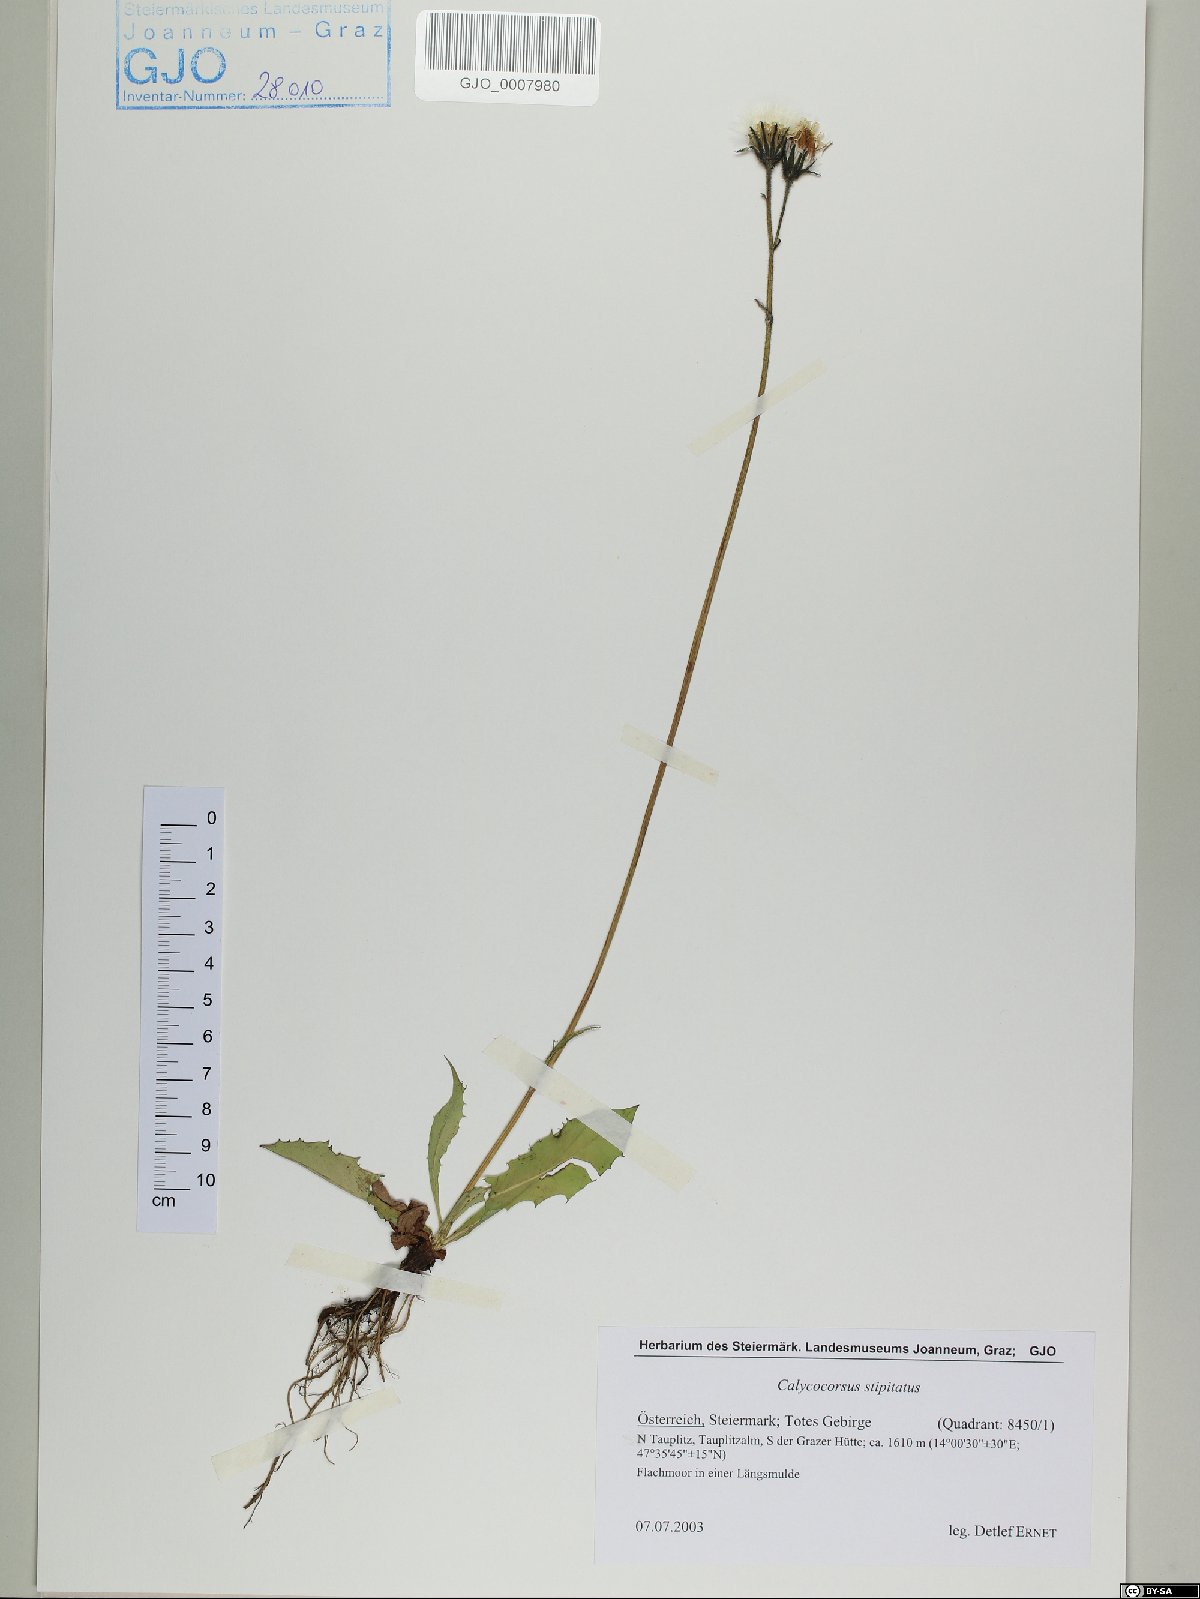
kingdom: Plantae
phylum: Tracheophyta
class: Magnoliopsida
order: Asterales
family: Asteraceae
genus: Willemetia
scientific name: Willemetia stipitata
